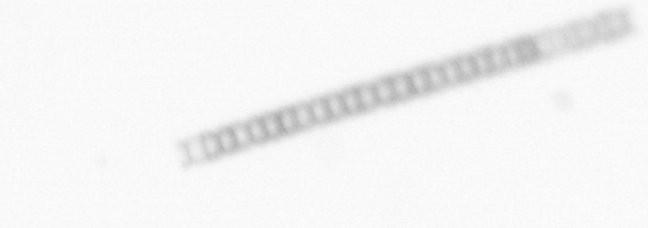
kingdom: Chromista
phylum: Ochrophyta
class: Bacillariophyceae
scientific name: Bacillariophyceae
